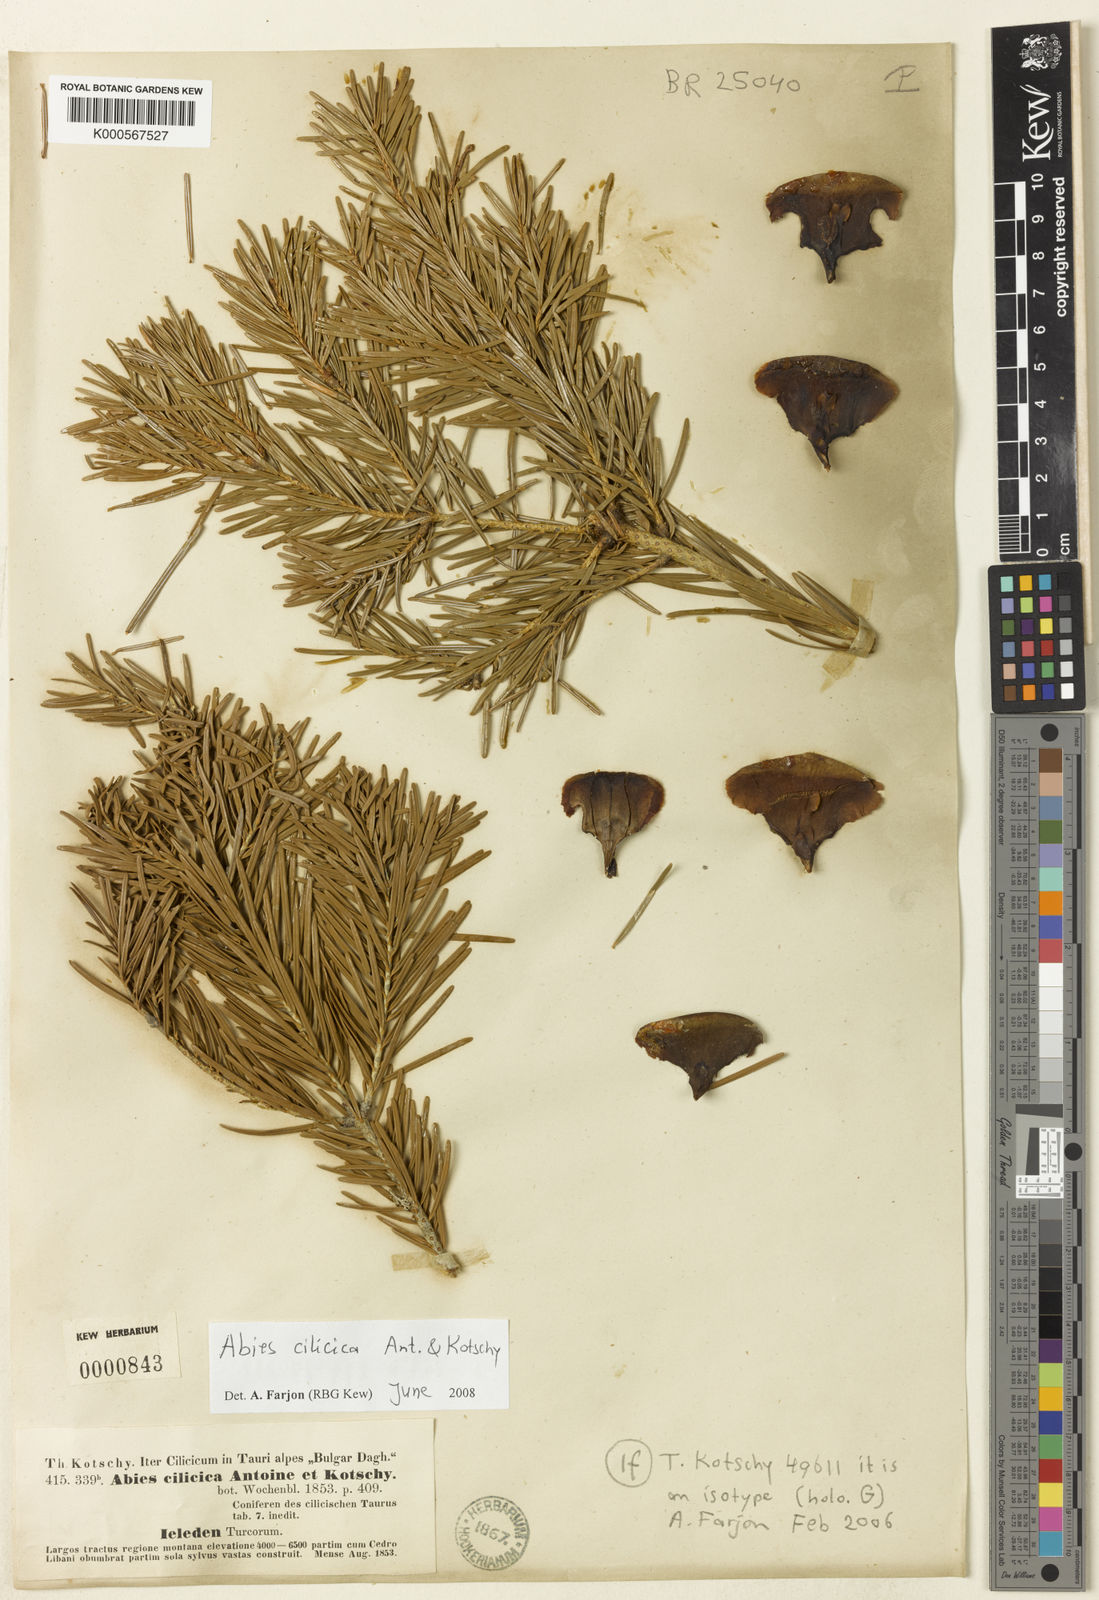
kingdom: Plantae
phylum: Tracheophyta
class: Pinopsida
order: Pinales
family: Pinaceae
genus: Abies
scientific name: Abies
